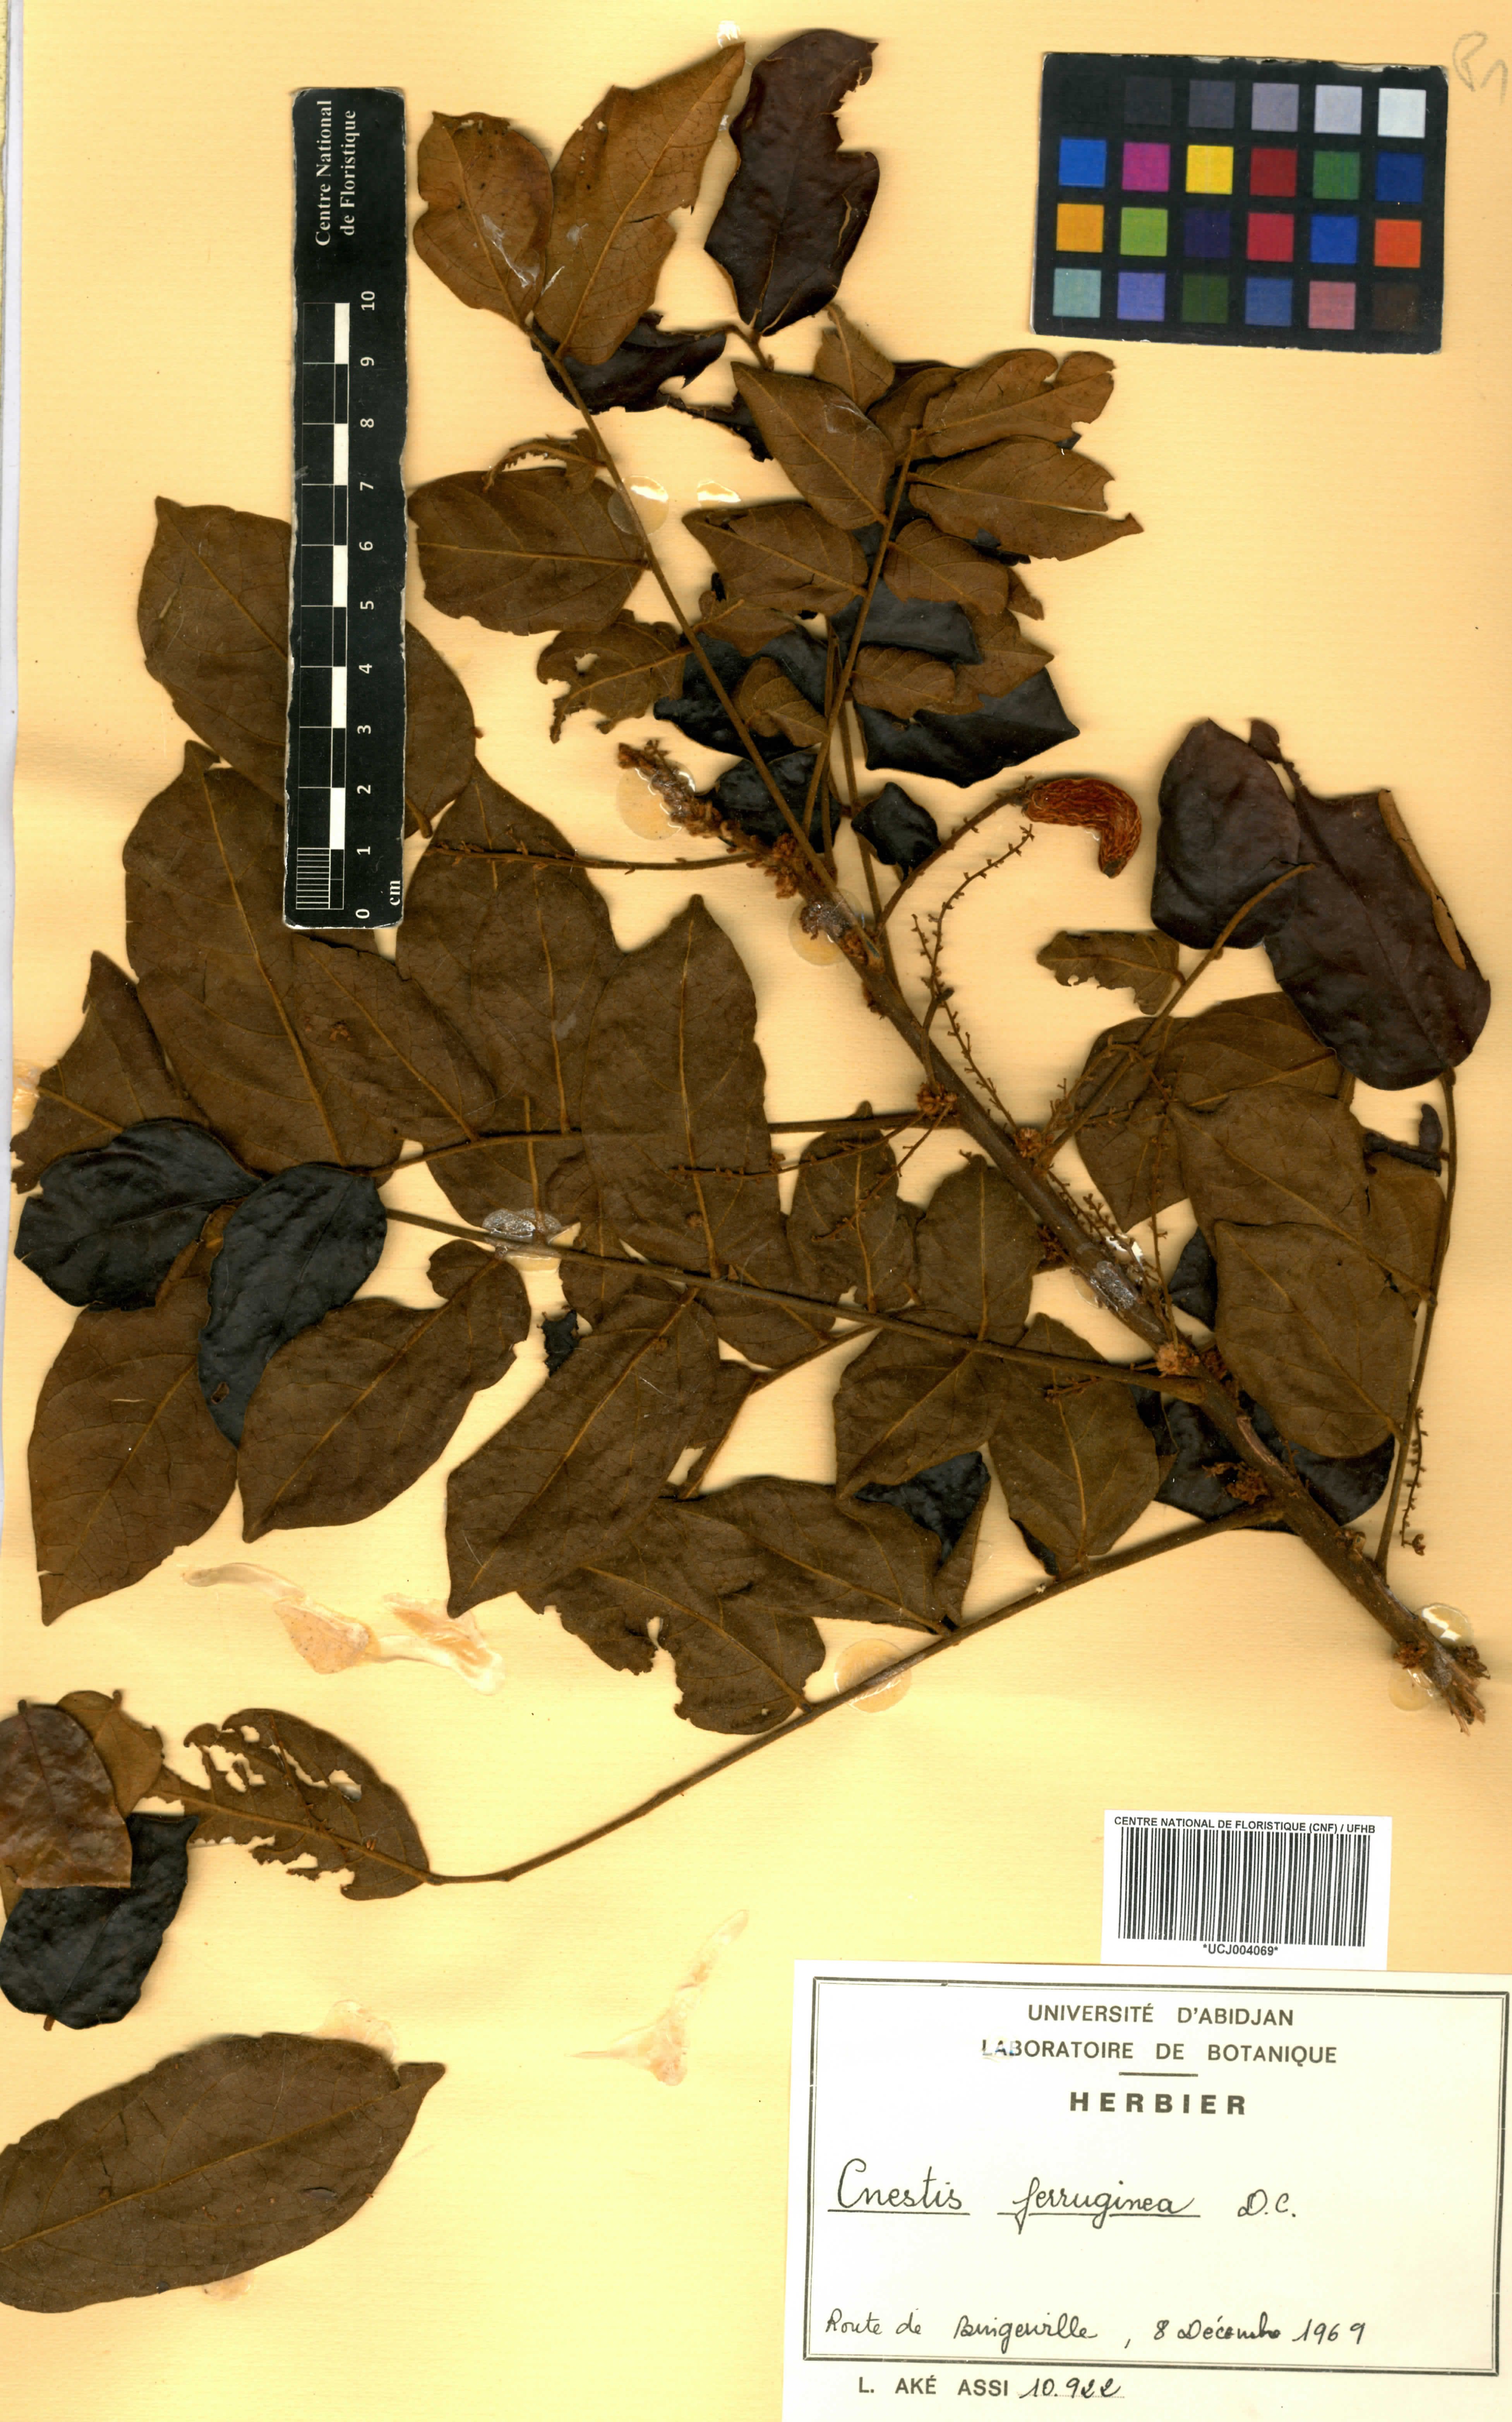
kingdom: Plantae
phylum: Tracheophyta
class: Magnoliopsida
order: Oxalidales
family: Connaraceae
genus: Cnestis
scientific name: Cnestis ferruginea
